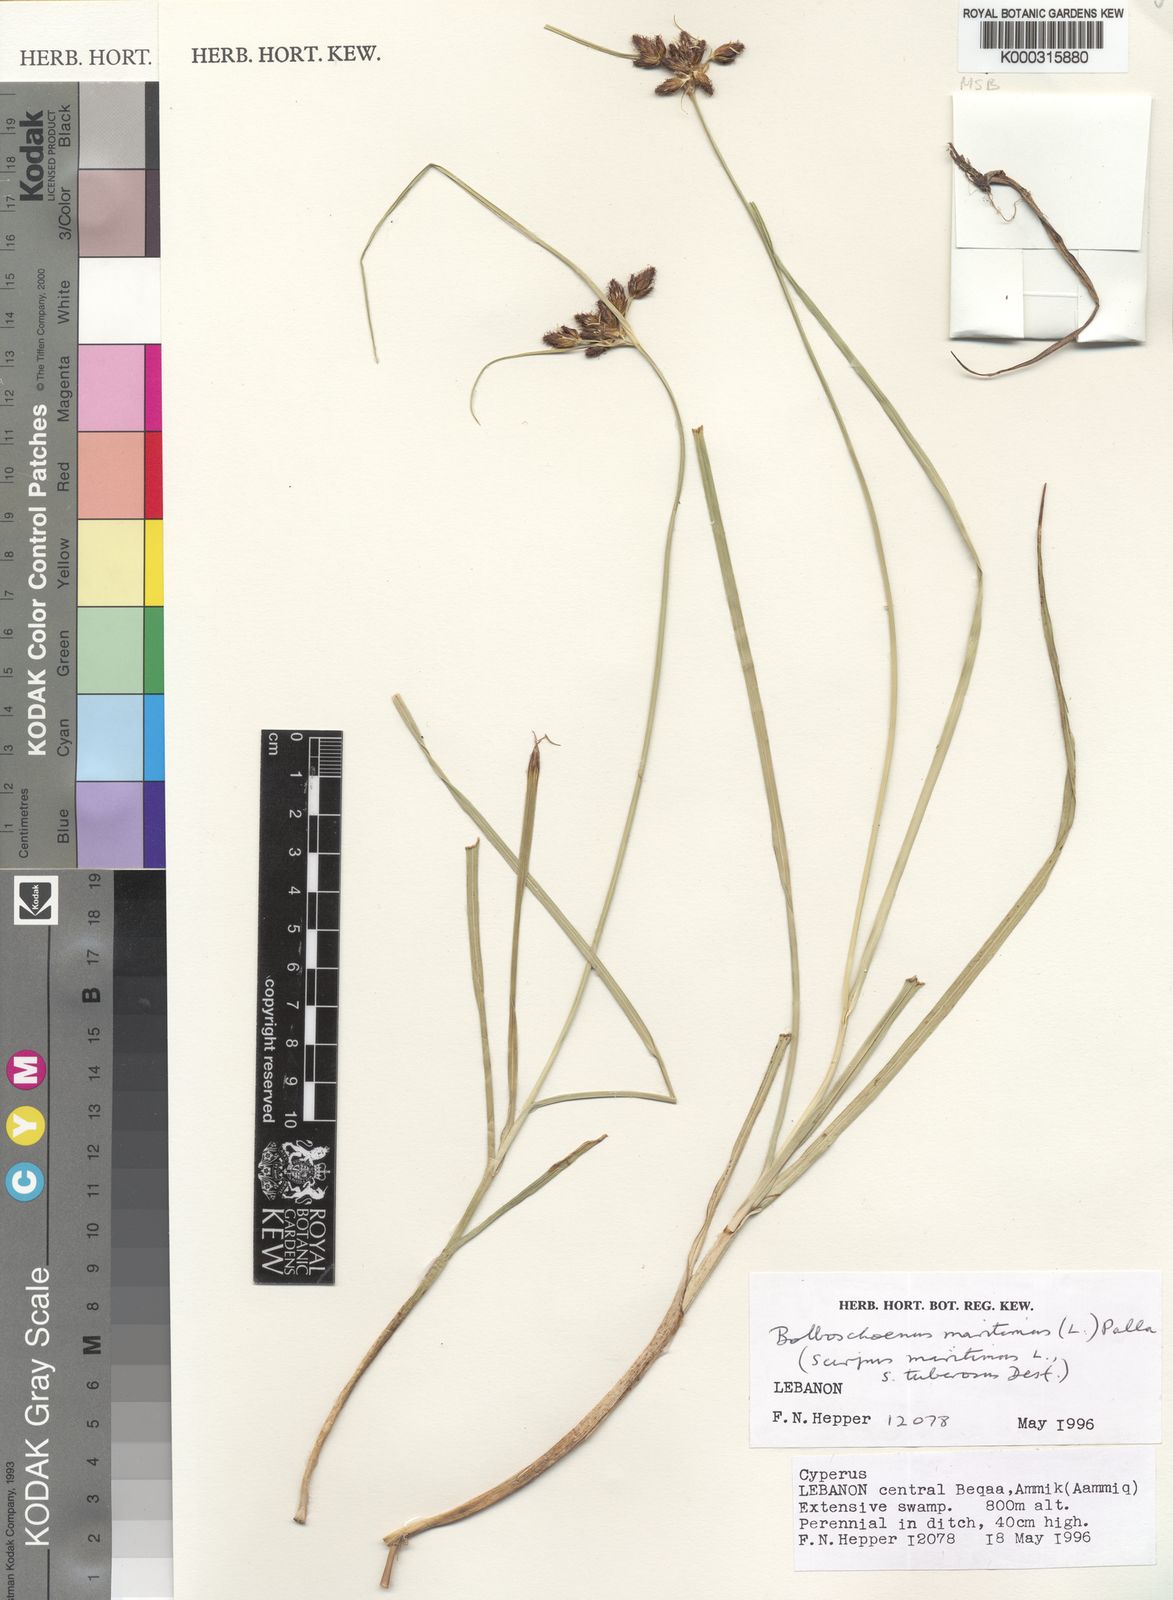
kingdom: Plantae
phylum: Tracheophyta
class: Liliopsida
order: Poales
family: Cyperaceae
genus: Bolboschoenus
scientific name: Bolboschoenus maritimus
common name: Sea club-rush
